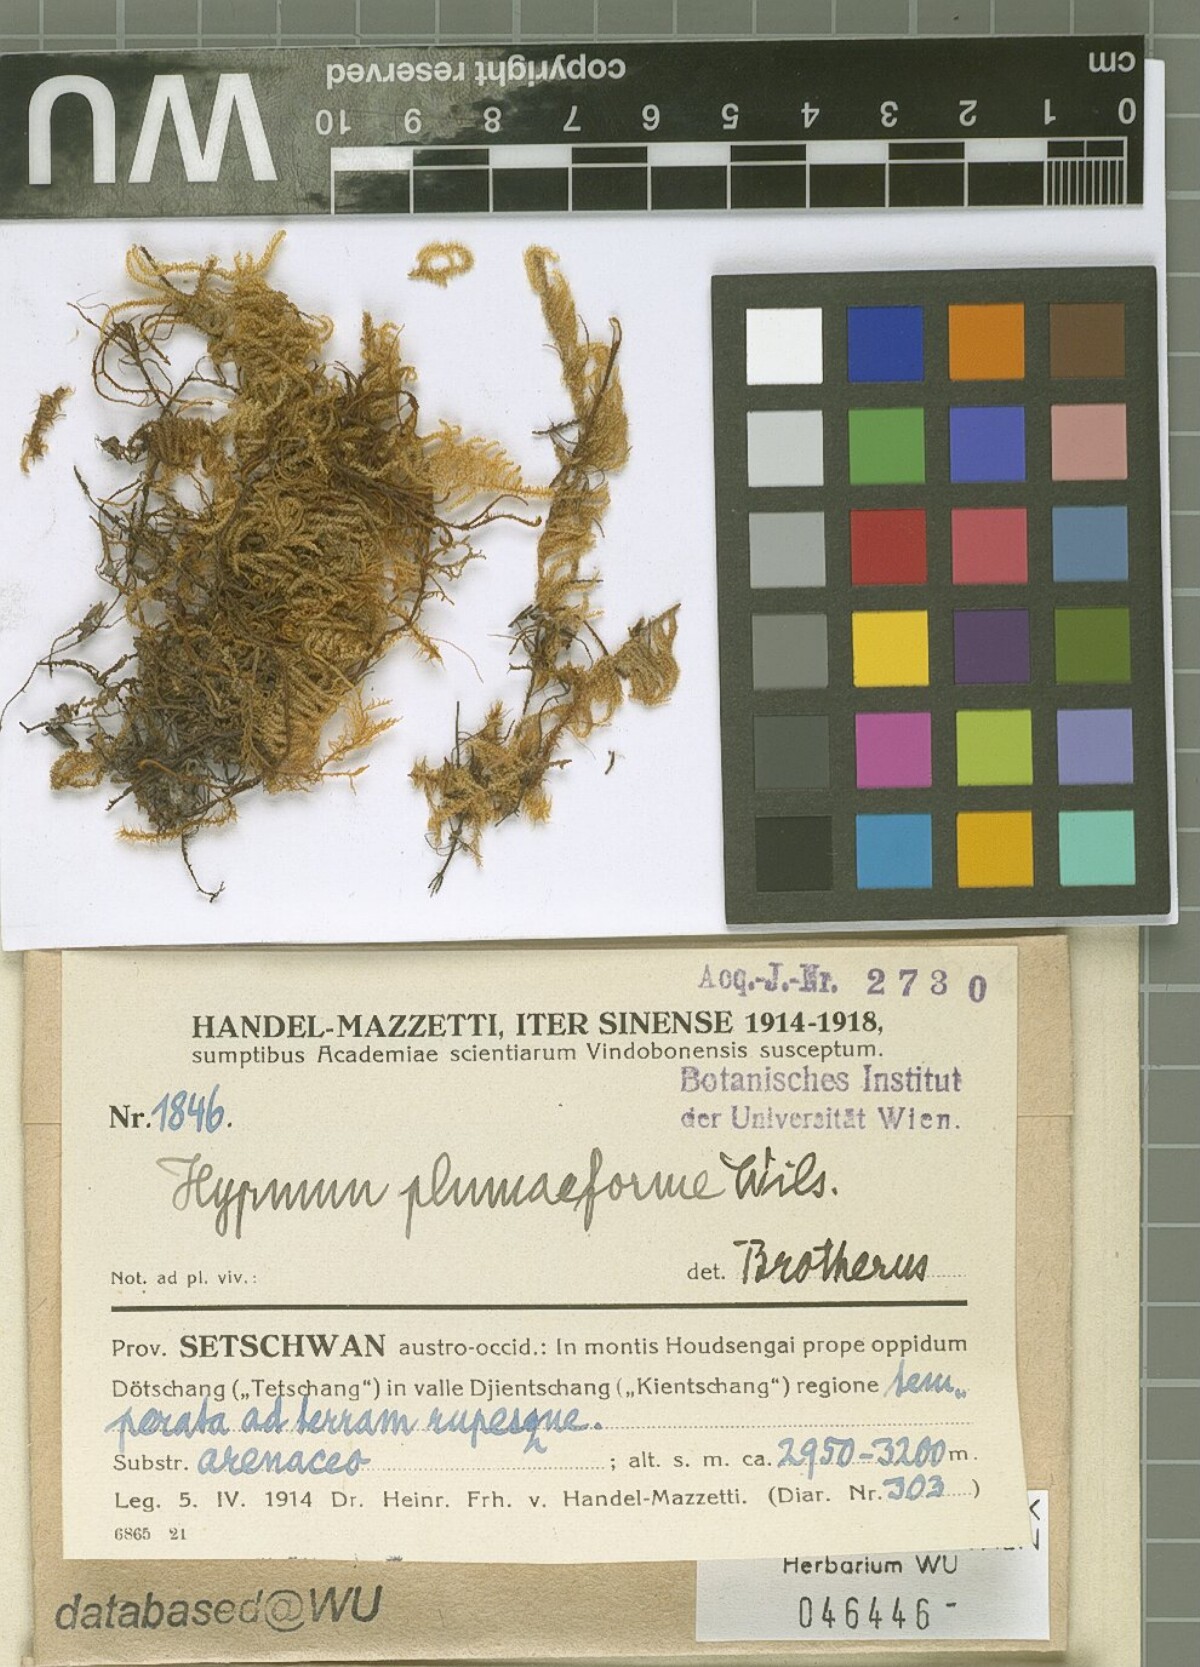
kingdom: Plantae
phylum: Bryophyta
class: Bryopsida
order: Hypnales
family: Hypnaceae
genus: Hypnum
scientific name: Hypnum plumaeforme
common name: Cypress-leaved plaitmoss
